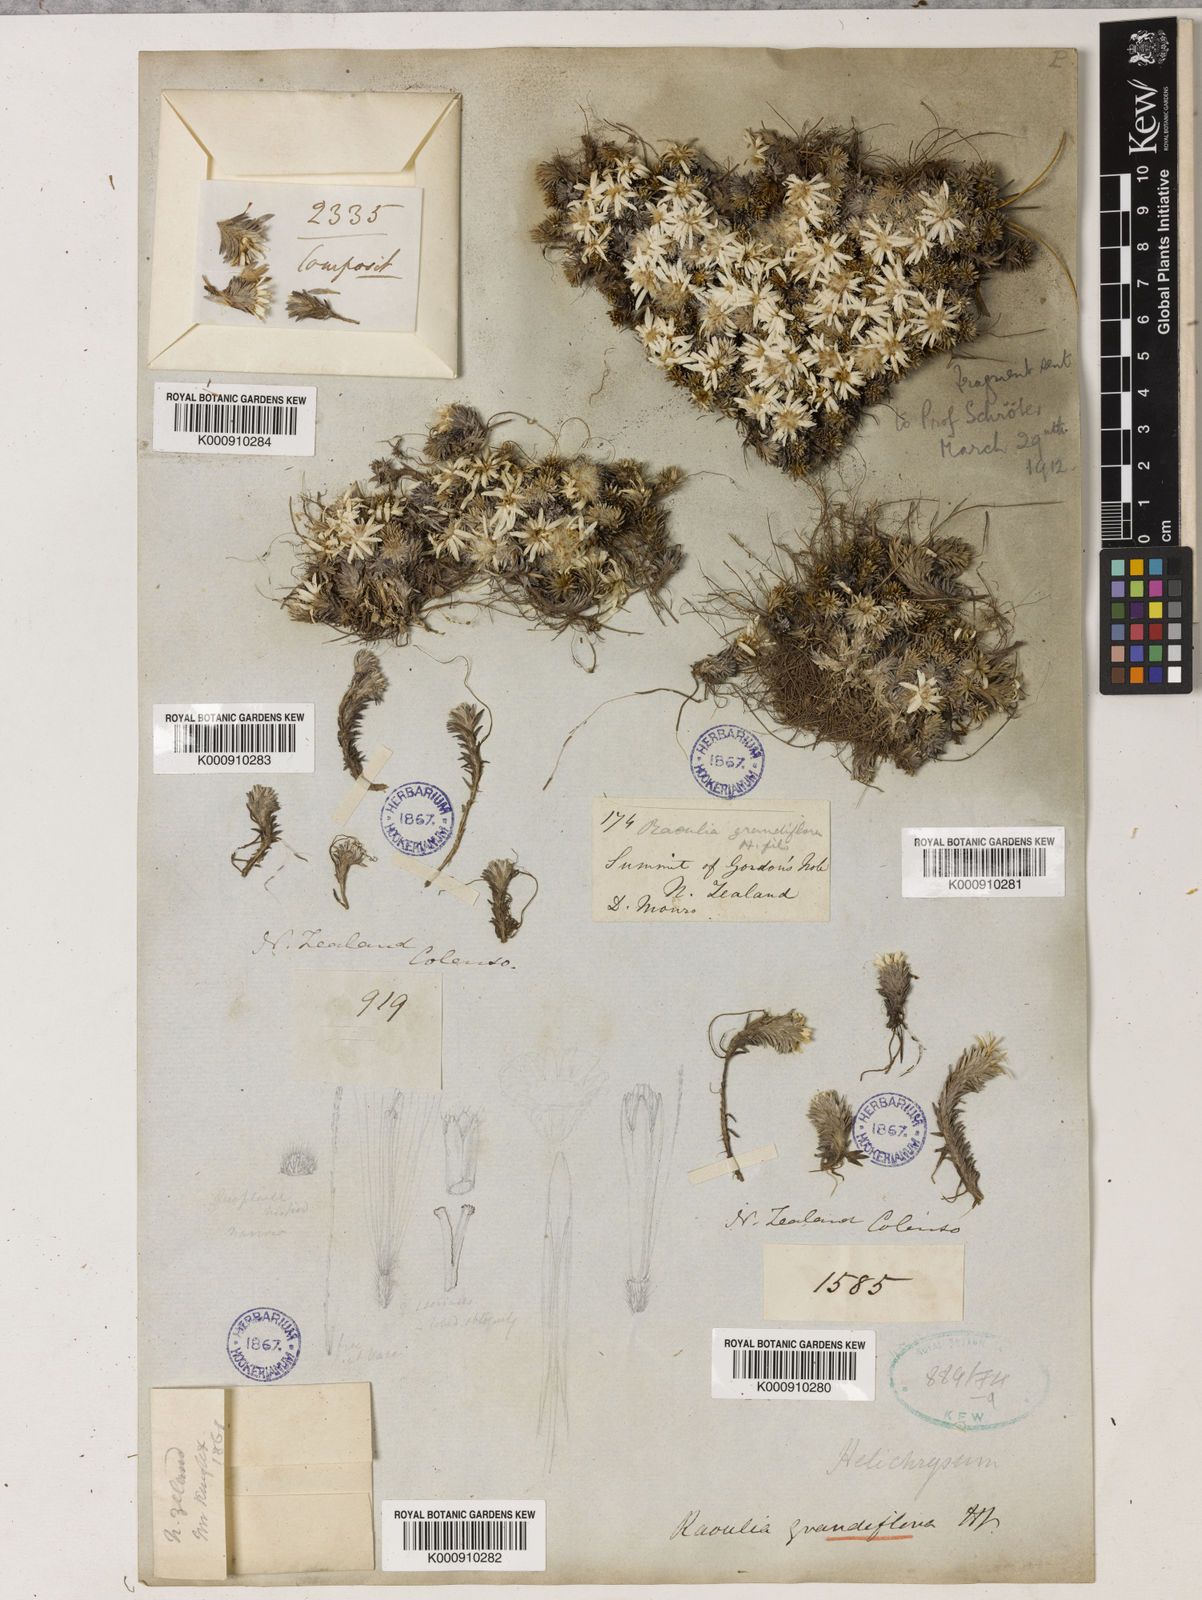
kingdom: Plantae
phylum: Tracheophyta
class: Magnoliopsida
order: Asterales
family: Asteraceae
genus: Raoulia
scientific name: Raoulia grandiflora
